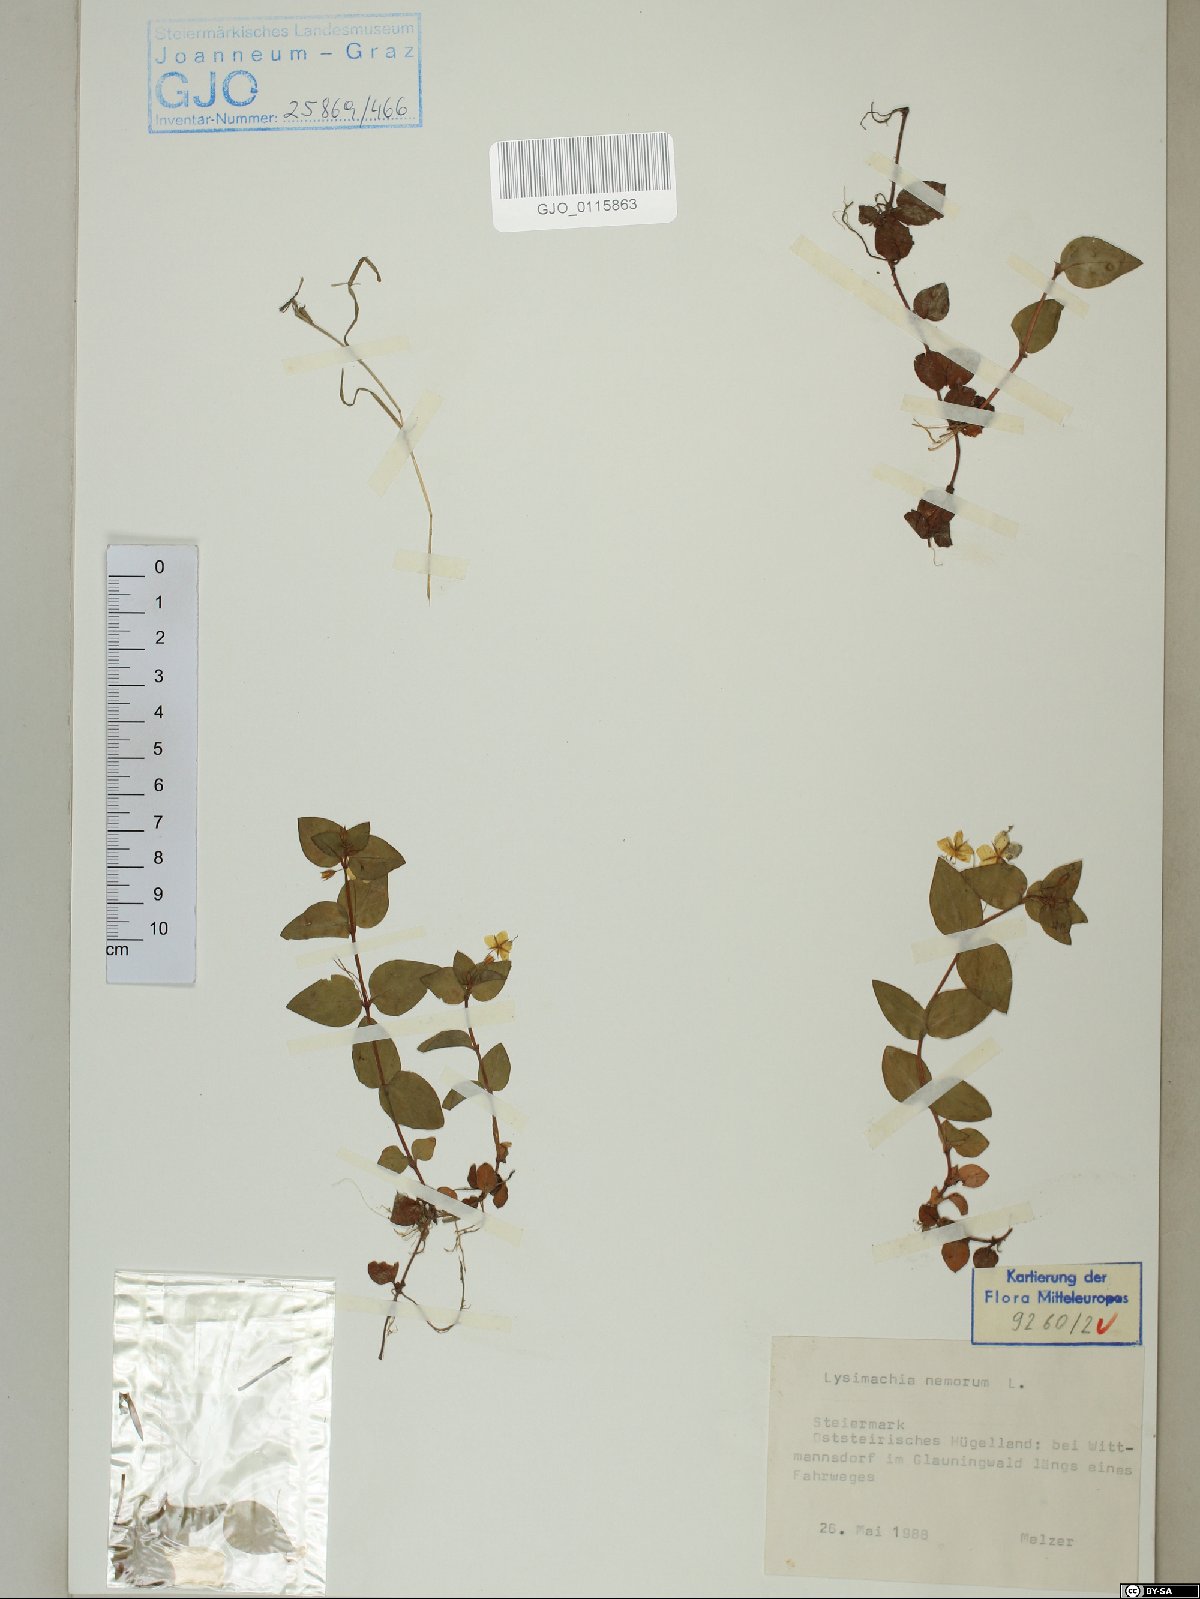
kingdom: Plantae
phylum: Tracheophyta
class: Magnoliopsida
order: Ericales
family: Primulaceae
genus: Lysimachia
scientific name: Lysimachia nemorum
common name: Yellow pimpernel
